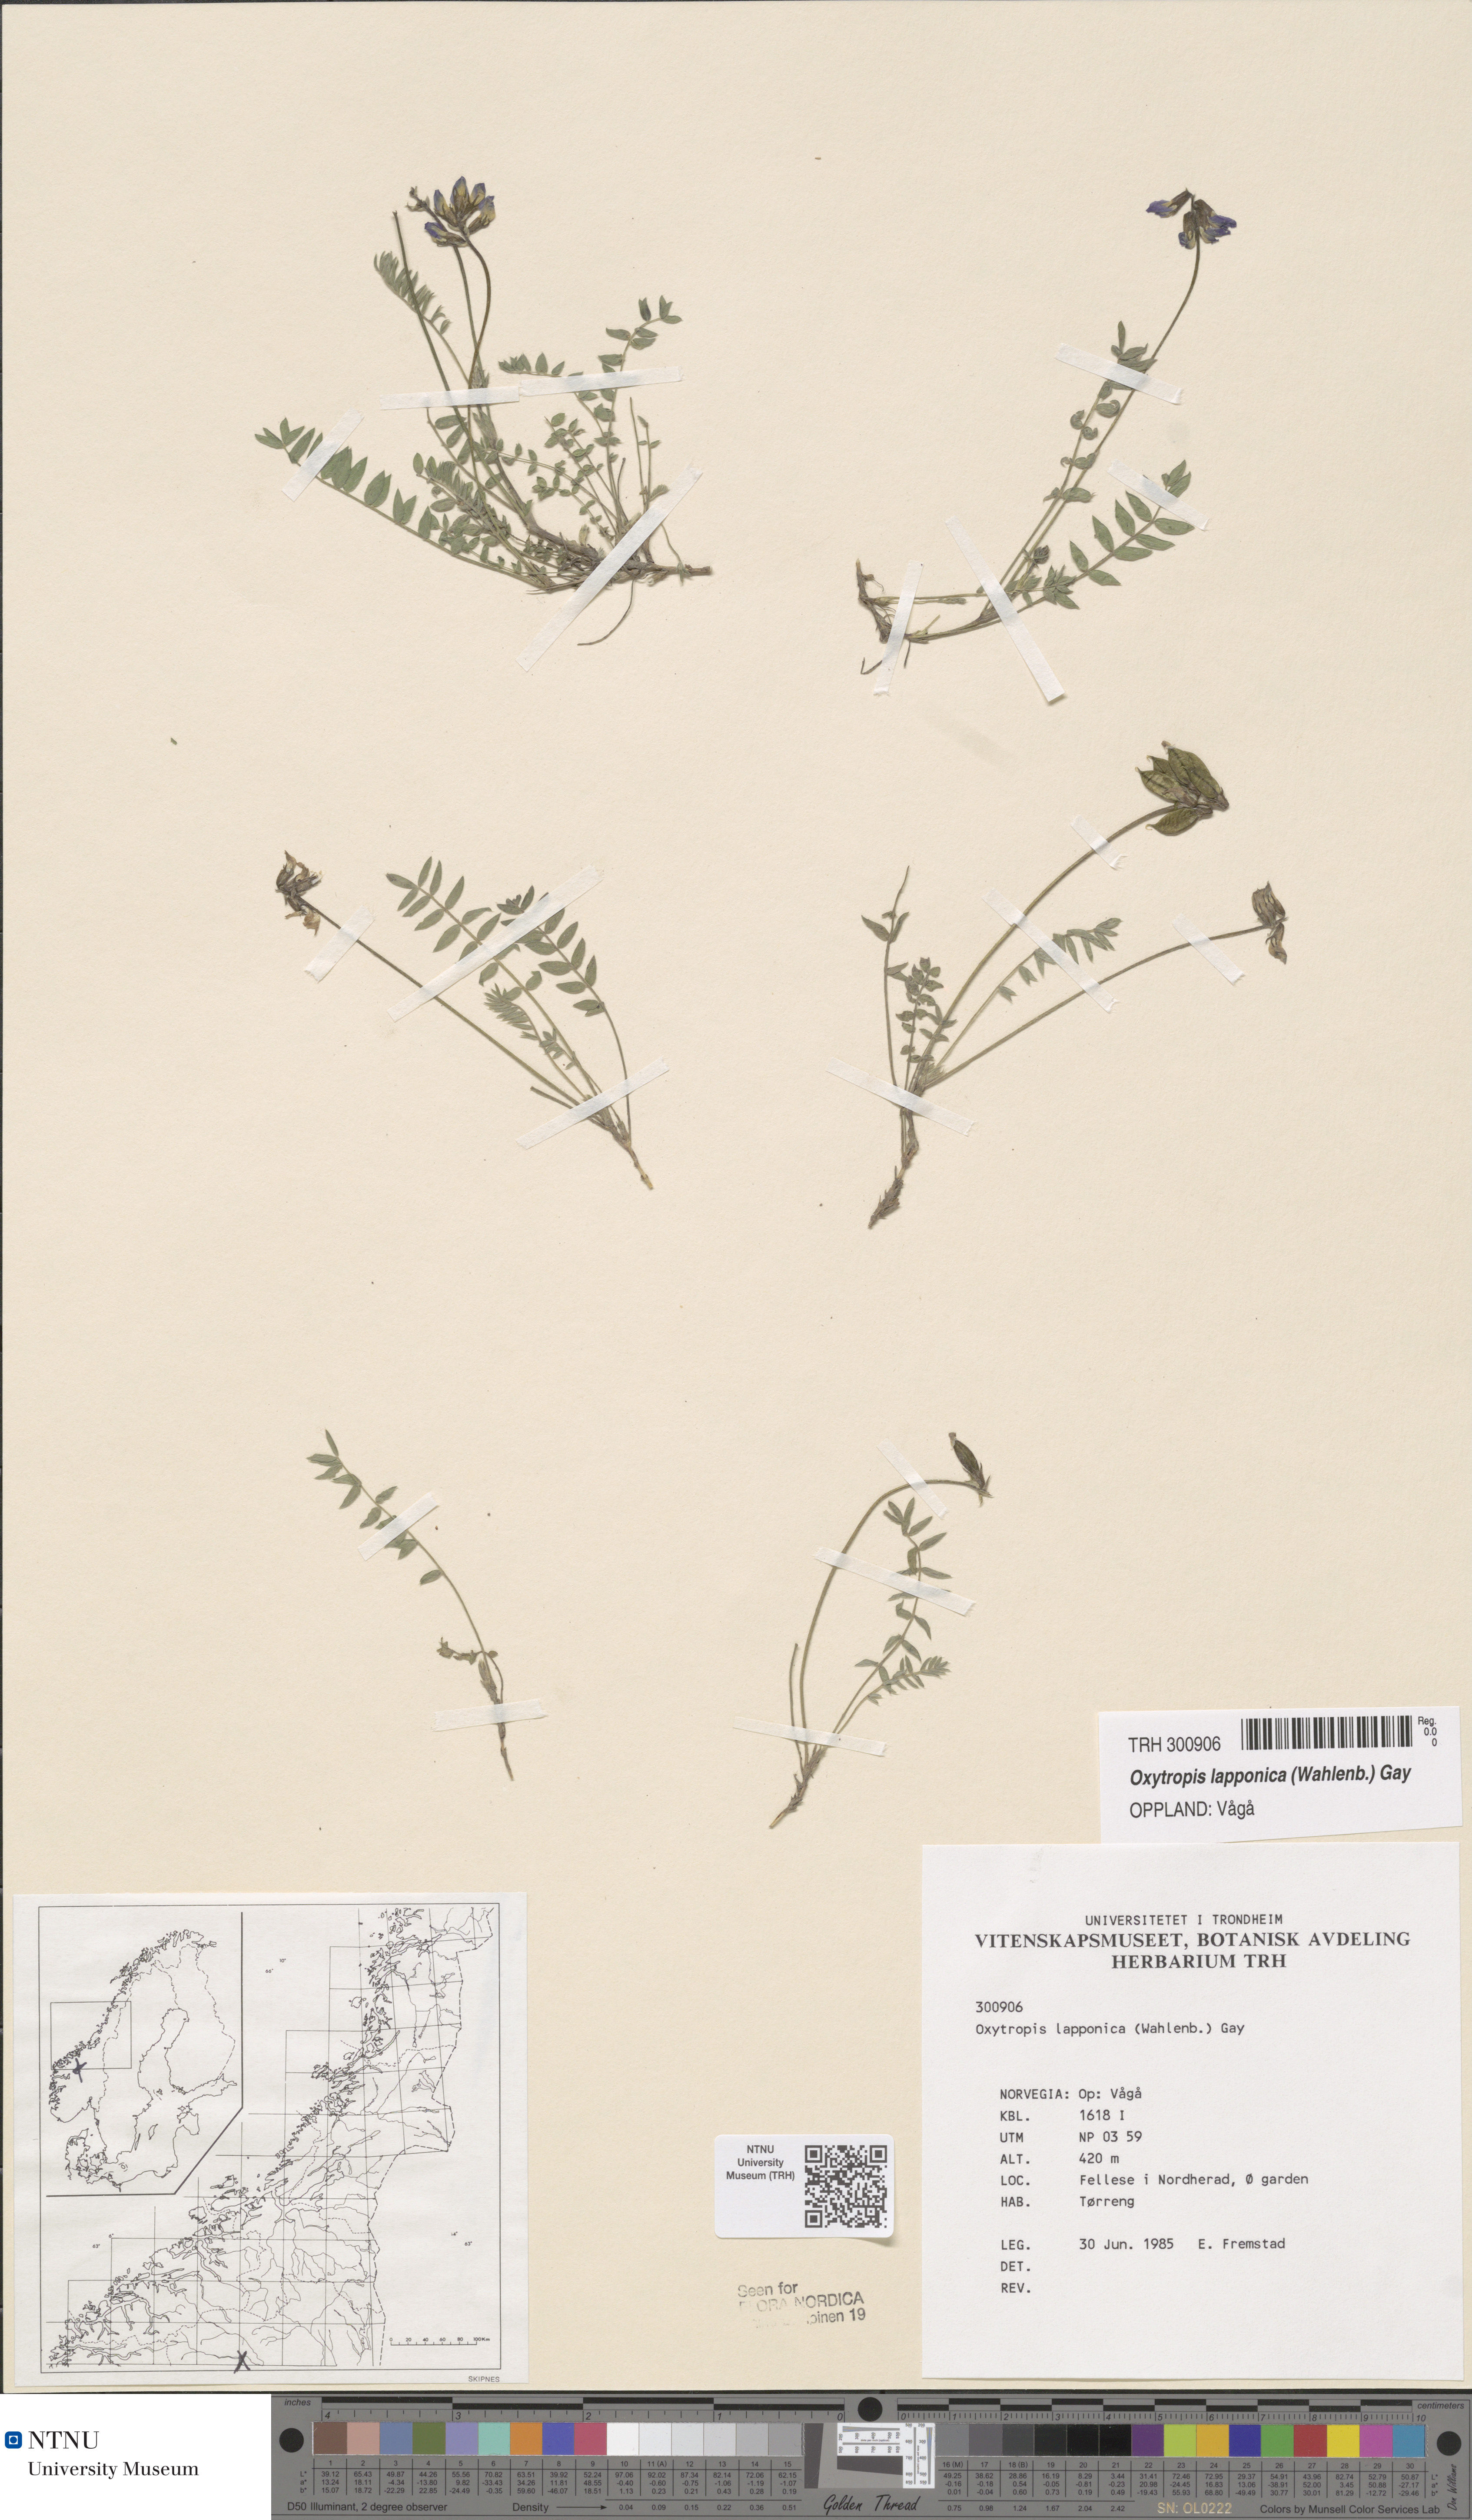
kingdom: Plantae
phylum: Tracheophyta
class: Magnoliopsida
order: Fabales
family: Fabaceae
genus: Oxytropis
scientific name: Oxytropis lapponica
